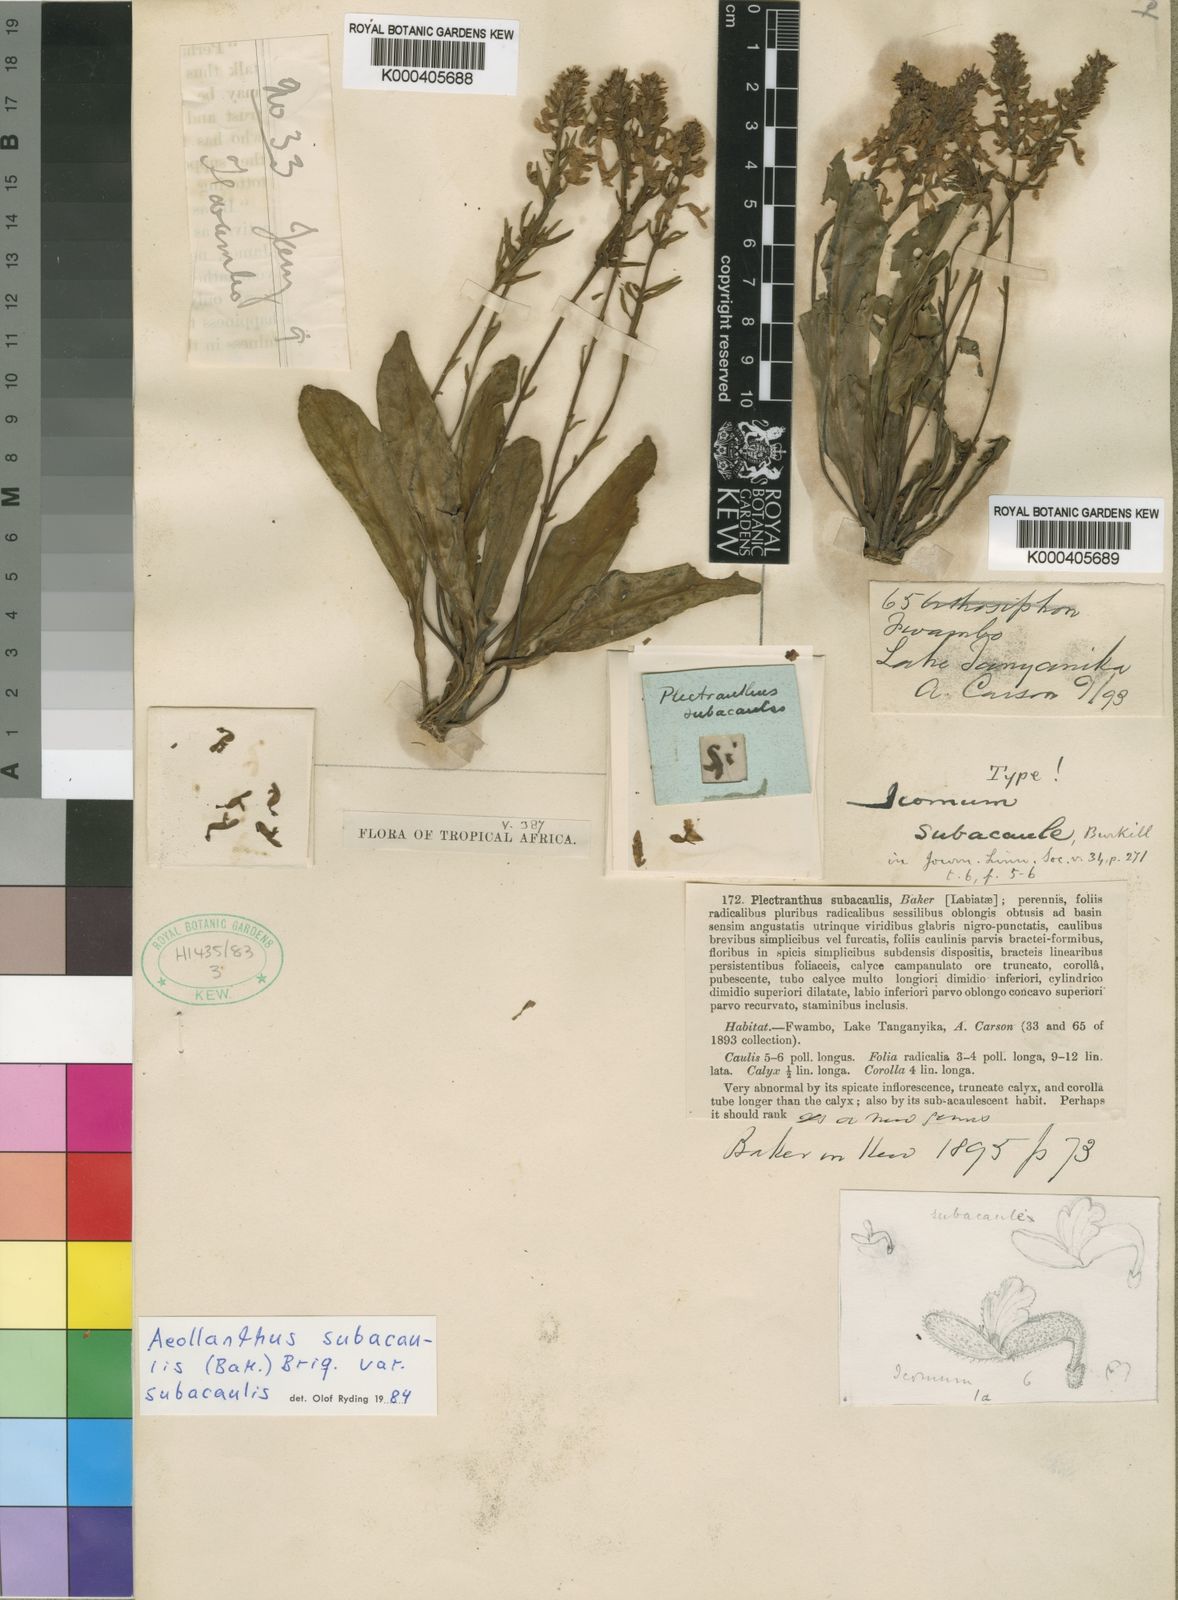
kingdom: Plantae
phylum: Tracheophyta
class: Magnoliopsida
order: Lamiales
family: Lamiaceae
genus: Aeollanthus
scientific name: Aeollanthus subacaulis
